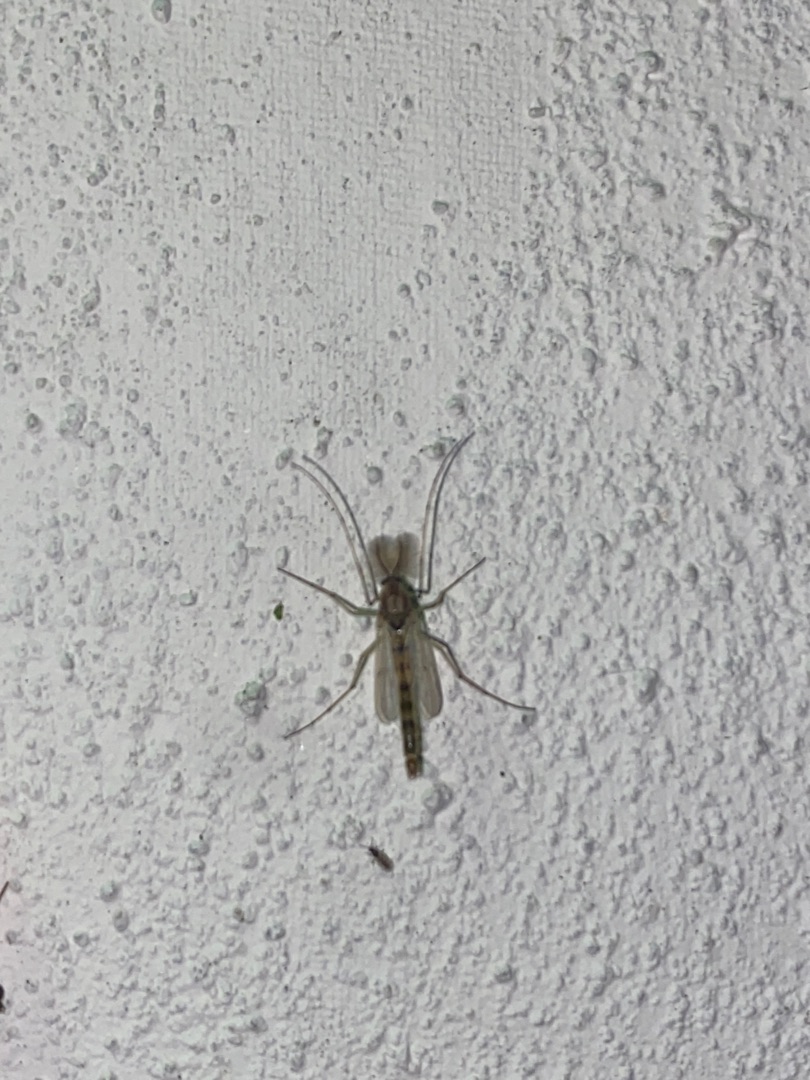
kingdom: Animalia
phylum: Arthropoda
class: Insecta
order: Diptera
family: Chironomidae
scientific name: Chironomidae
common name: Dansemyg
